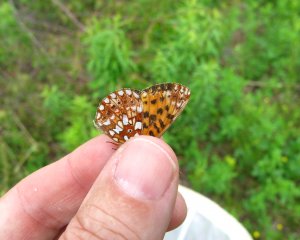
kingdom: Animalia
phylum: Arthropoda
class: Insecta
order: Lepidoptera
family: Nymphalidae
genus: Boloria
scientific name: Boloria selene
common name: Silver-bordered Fritillary
